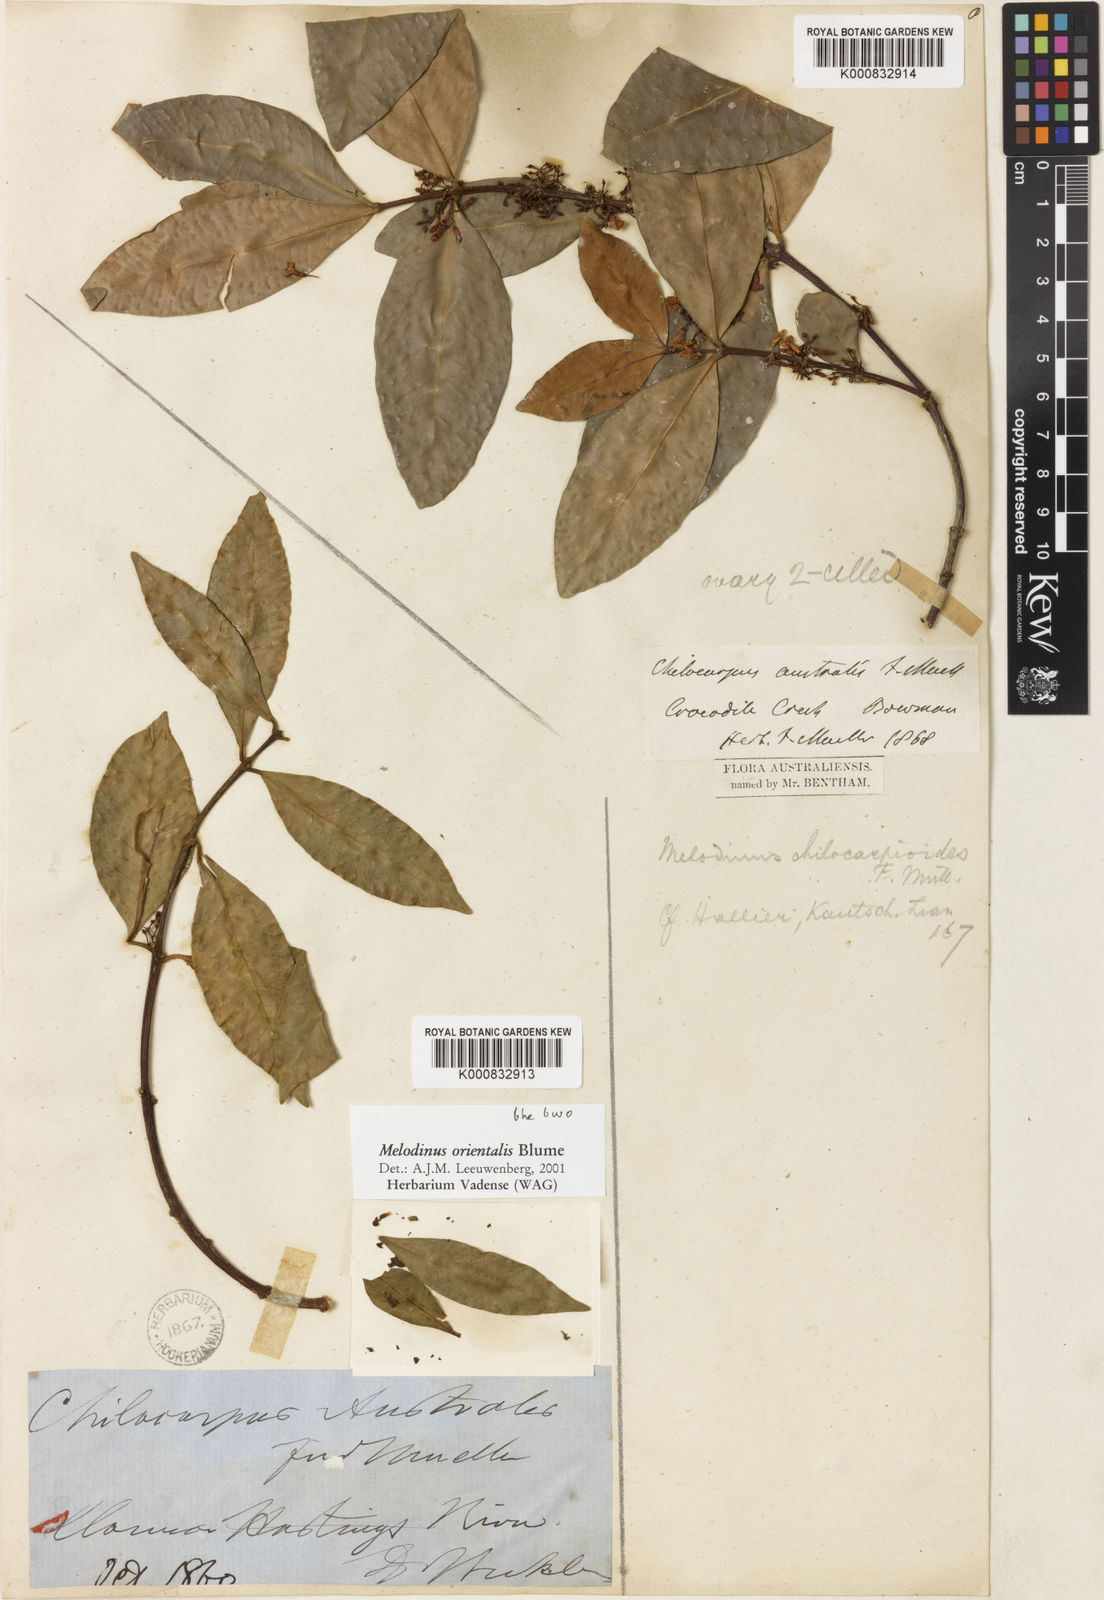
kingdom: Plantae
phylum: Tracheophyta
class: Magnoliopsida
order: Gentianales
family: Apocynaceae
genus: Melodinus
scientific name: Melodinus orientalis
